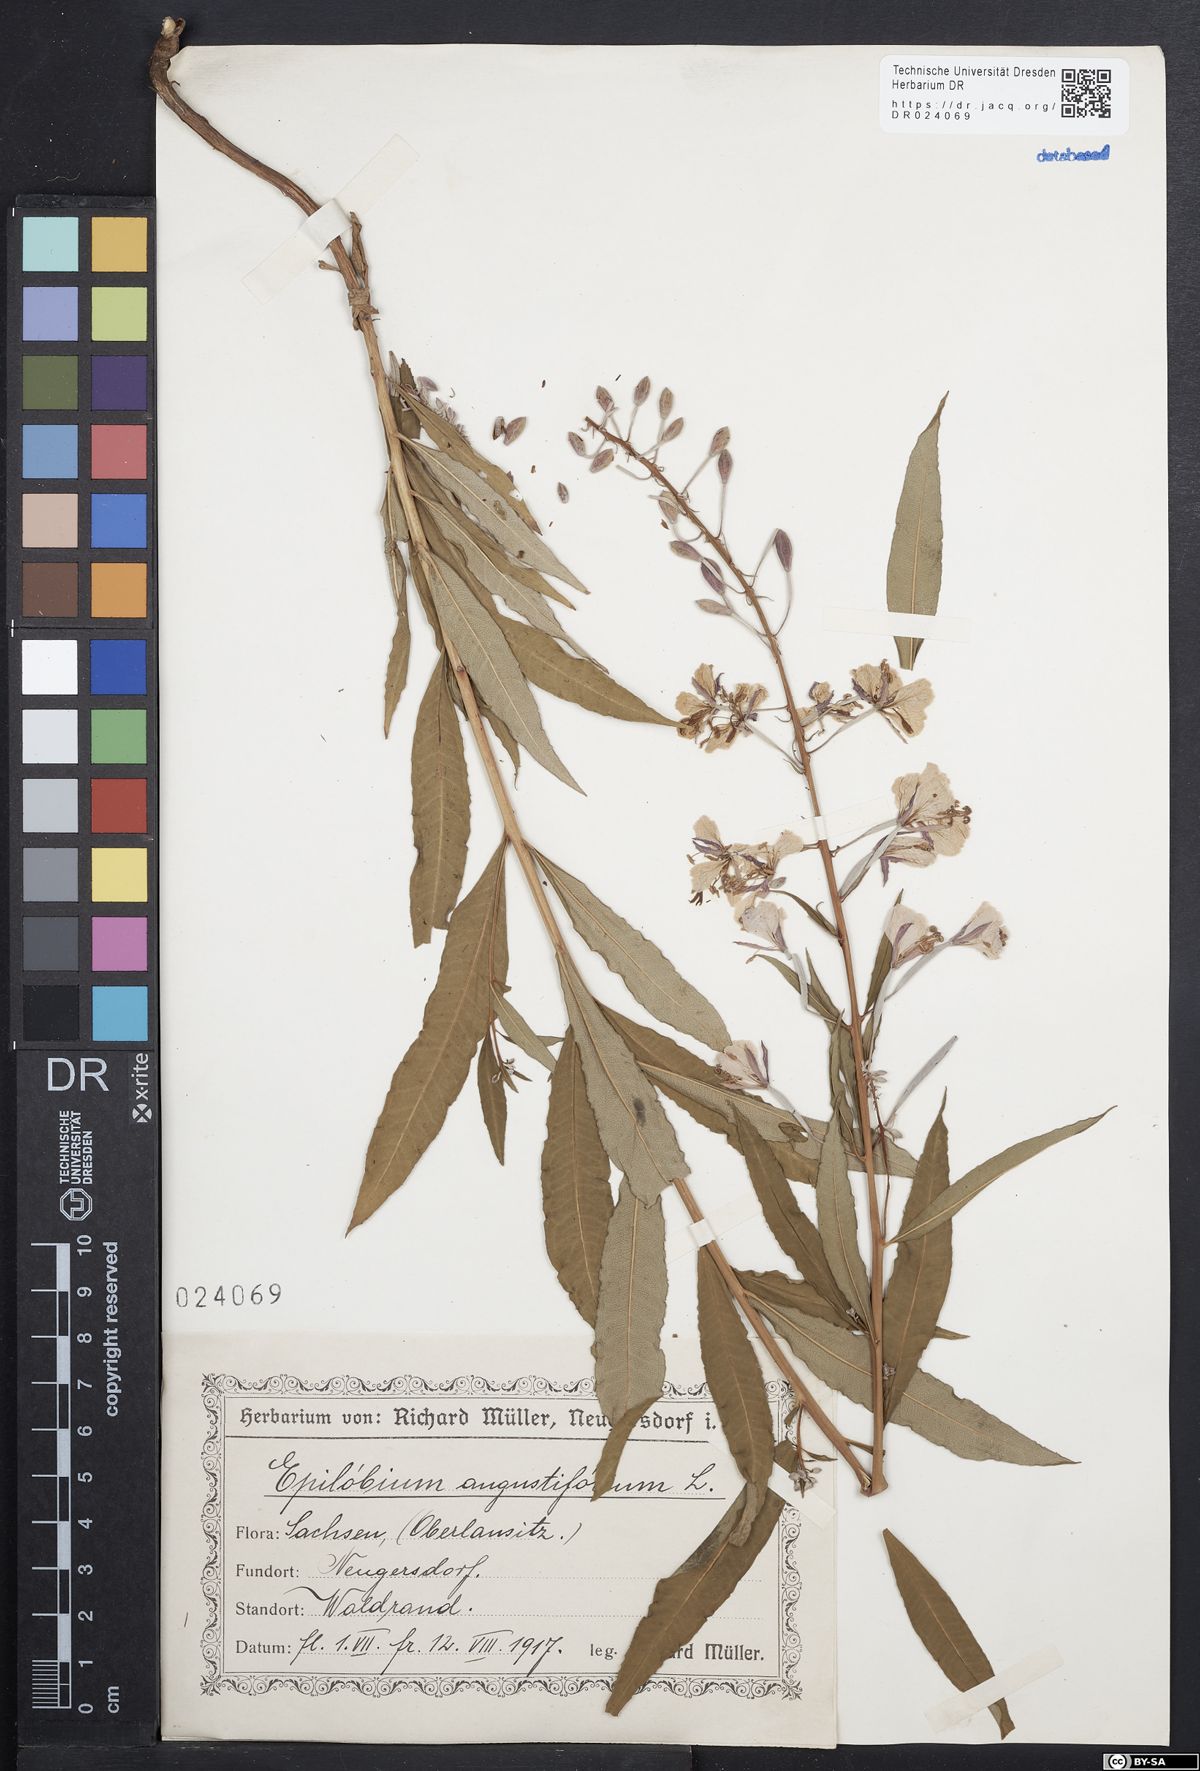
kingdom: Plantae
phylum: Tracheophyta
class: Magnoliopsida
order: Myrtales
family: Onagraceae
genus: Chamaenerion
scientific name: Chamaenerion angustifolium
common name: Fireweed
